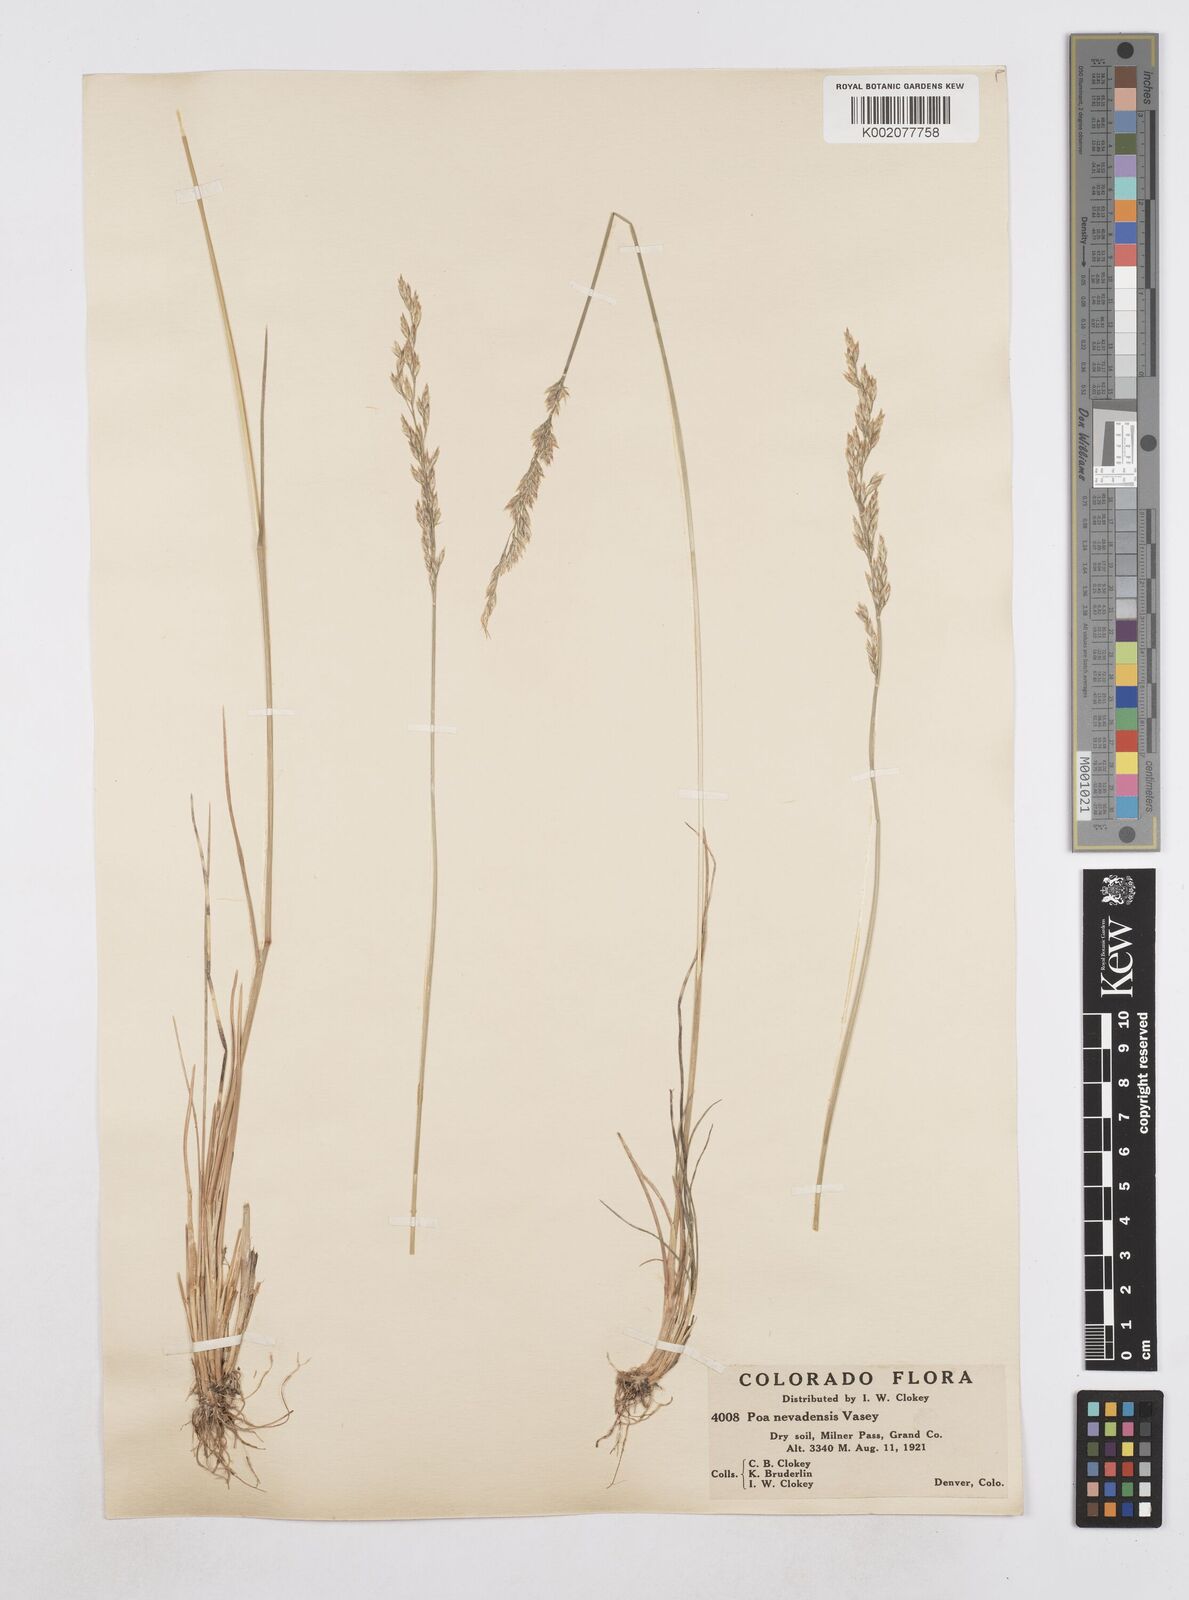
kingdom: Plantae
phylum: Tracheophyta
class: Liliopsida
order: Poales
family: Poaceae
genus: Poa
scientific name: Poa secunda
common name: Sandberg bluegrass
